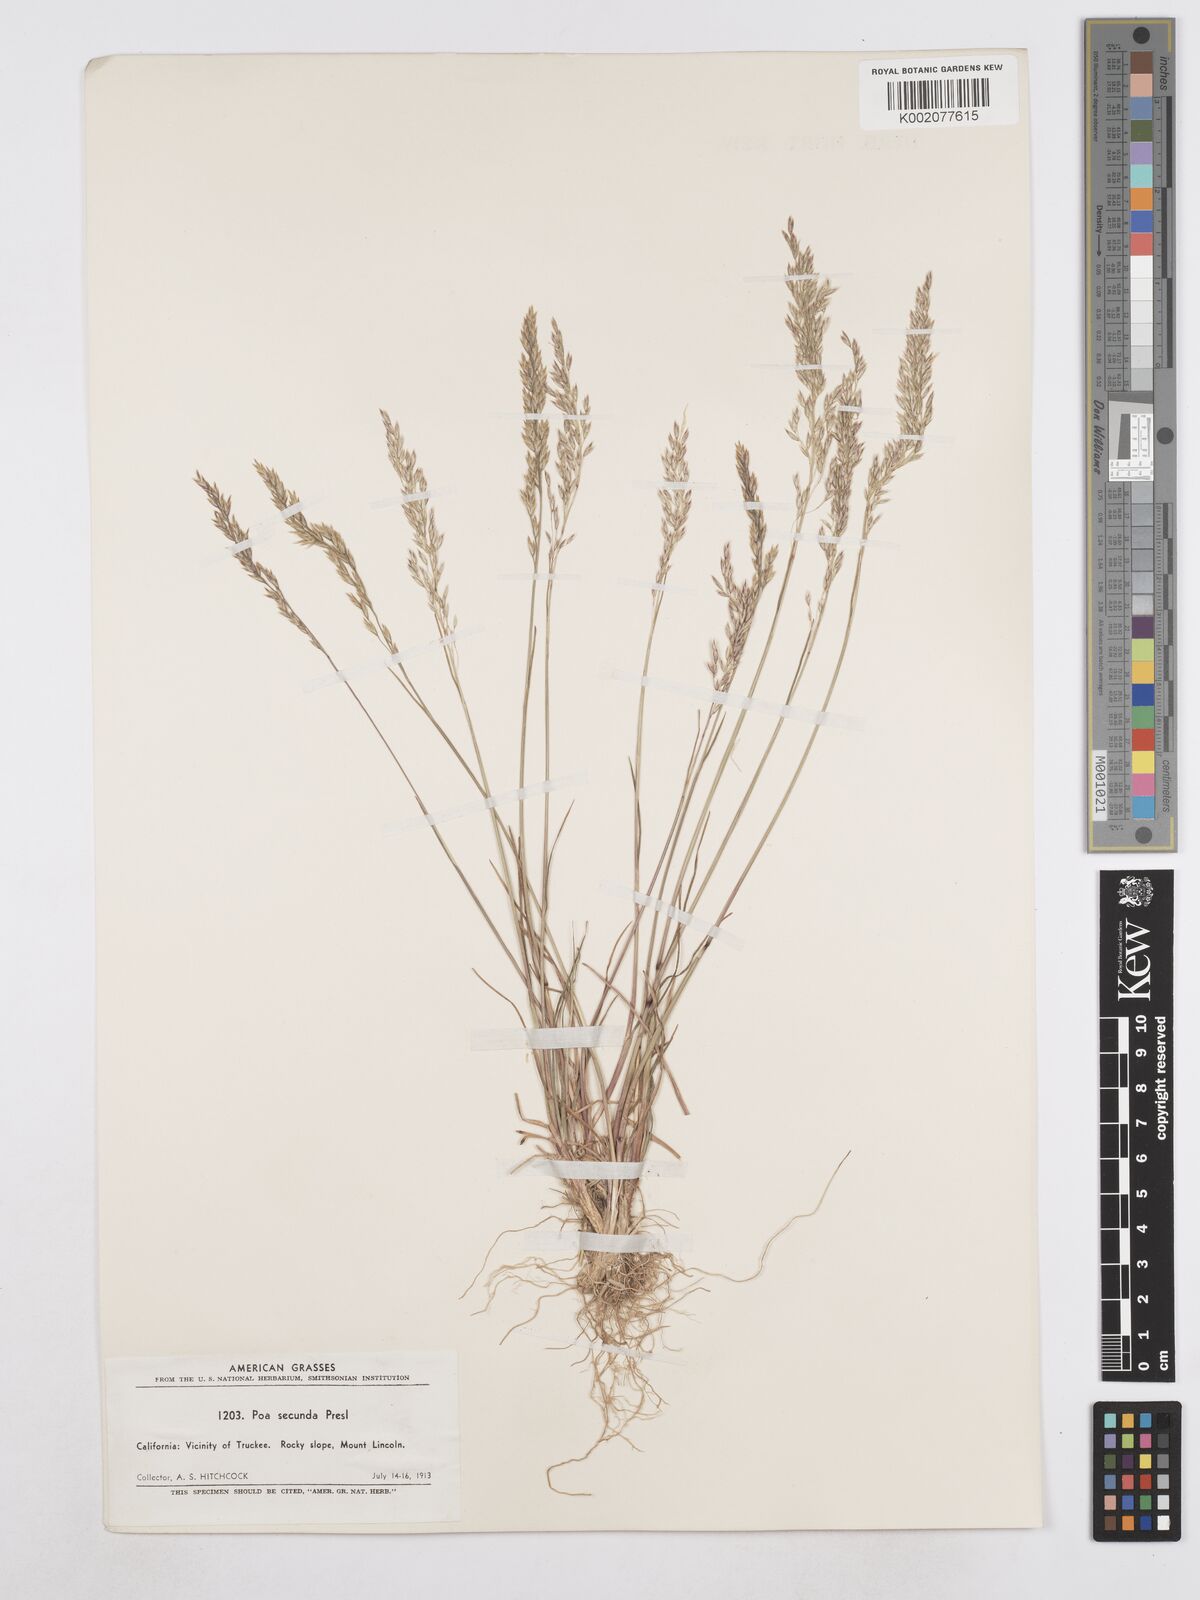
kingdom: Plantae
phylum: Tracheophyta
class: Liliopsida
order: Poales
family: Poaceae
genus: Poa
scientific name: Poa secunda
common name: Sandberg bluegrass
